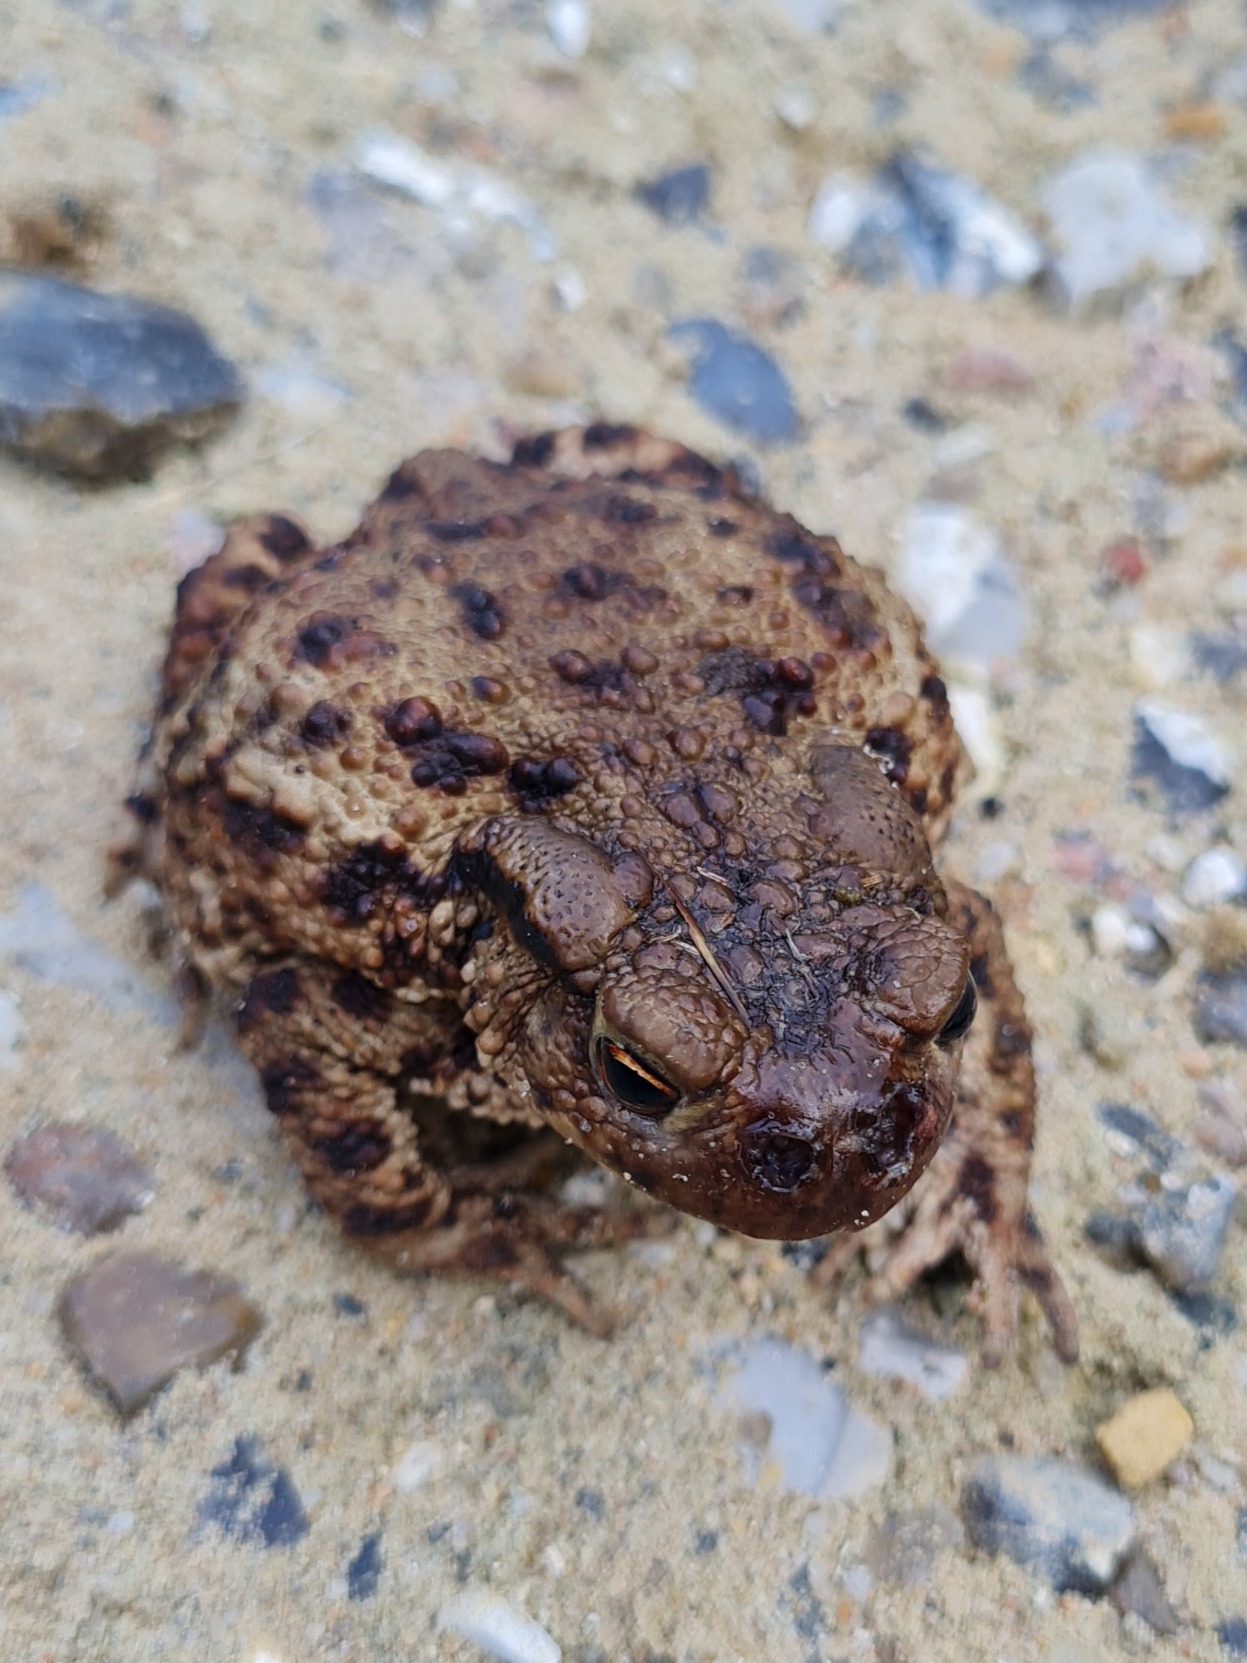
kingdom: Animalia
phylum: Chordata
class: Amphibia
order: Anura
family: Bufonidae
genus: Bufo
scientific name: Bufo bufo
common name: Skrubtudse
